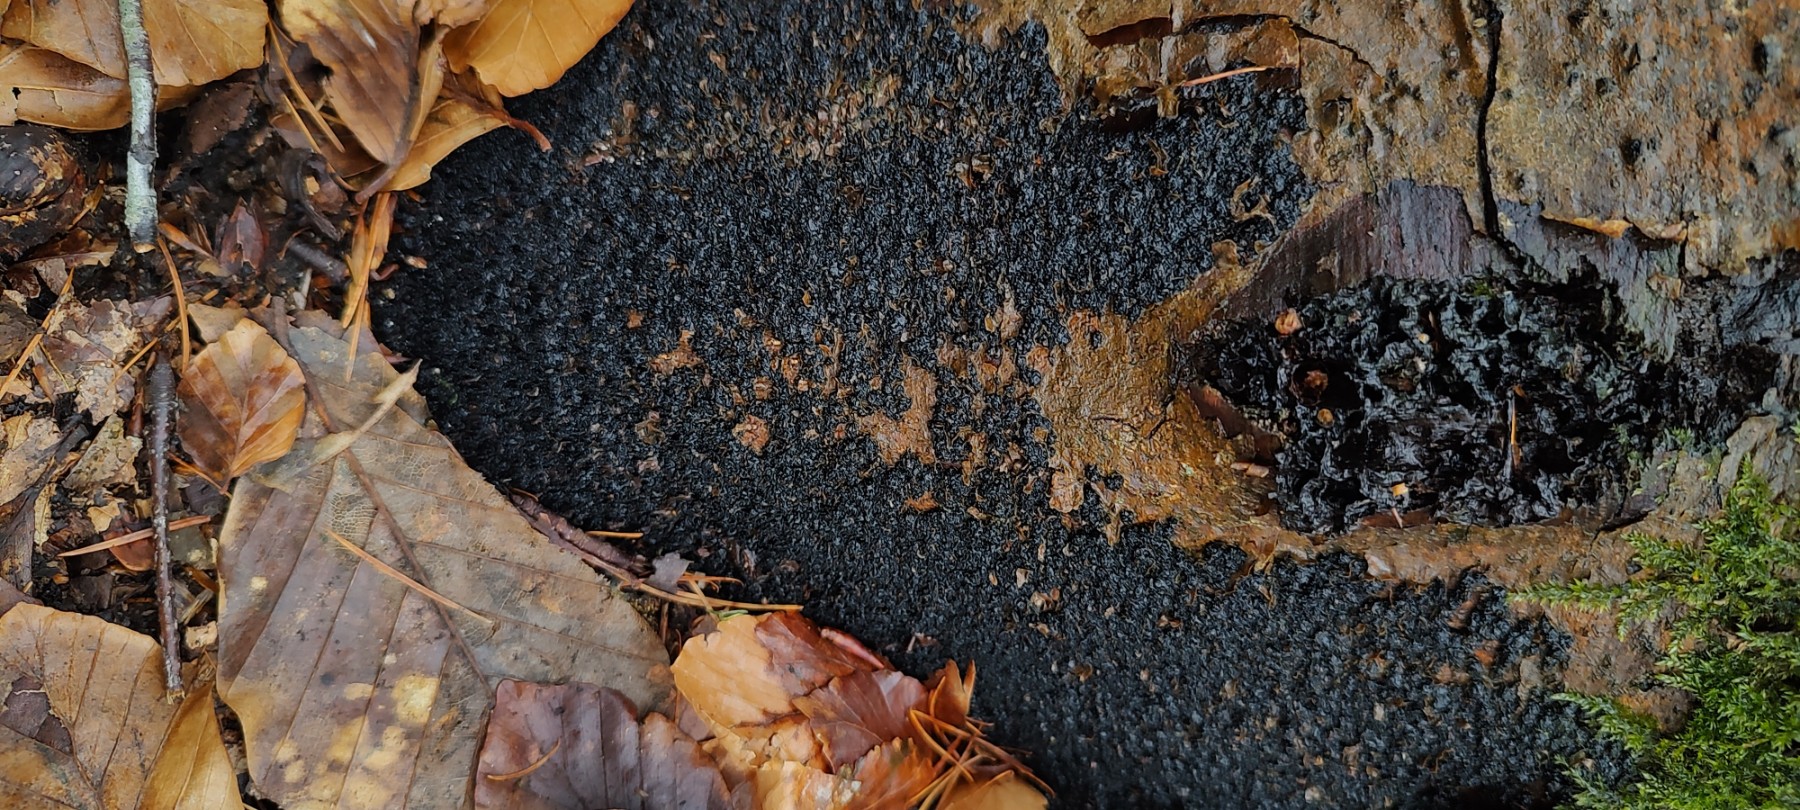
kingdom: Fungi
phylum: Ascomycota
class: Sordariomycetes
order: Xylariales
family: Melogrammataceae
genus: Melogramma
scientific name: Melogramma spiniferum
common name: bøgefod-kulhals
